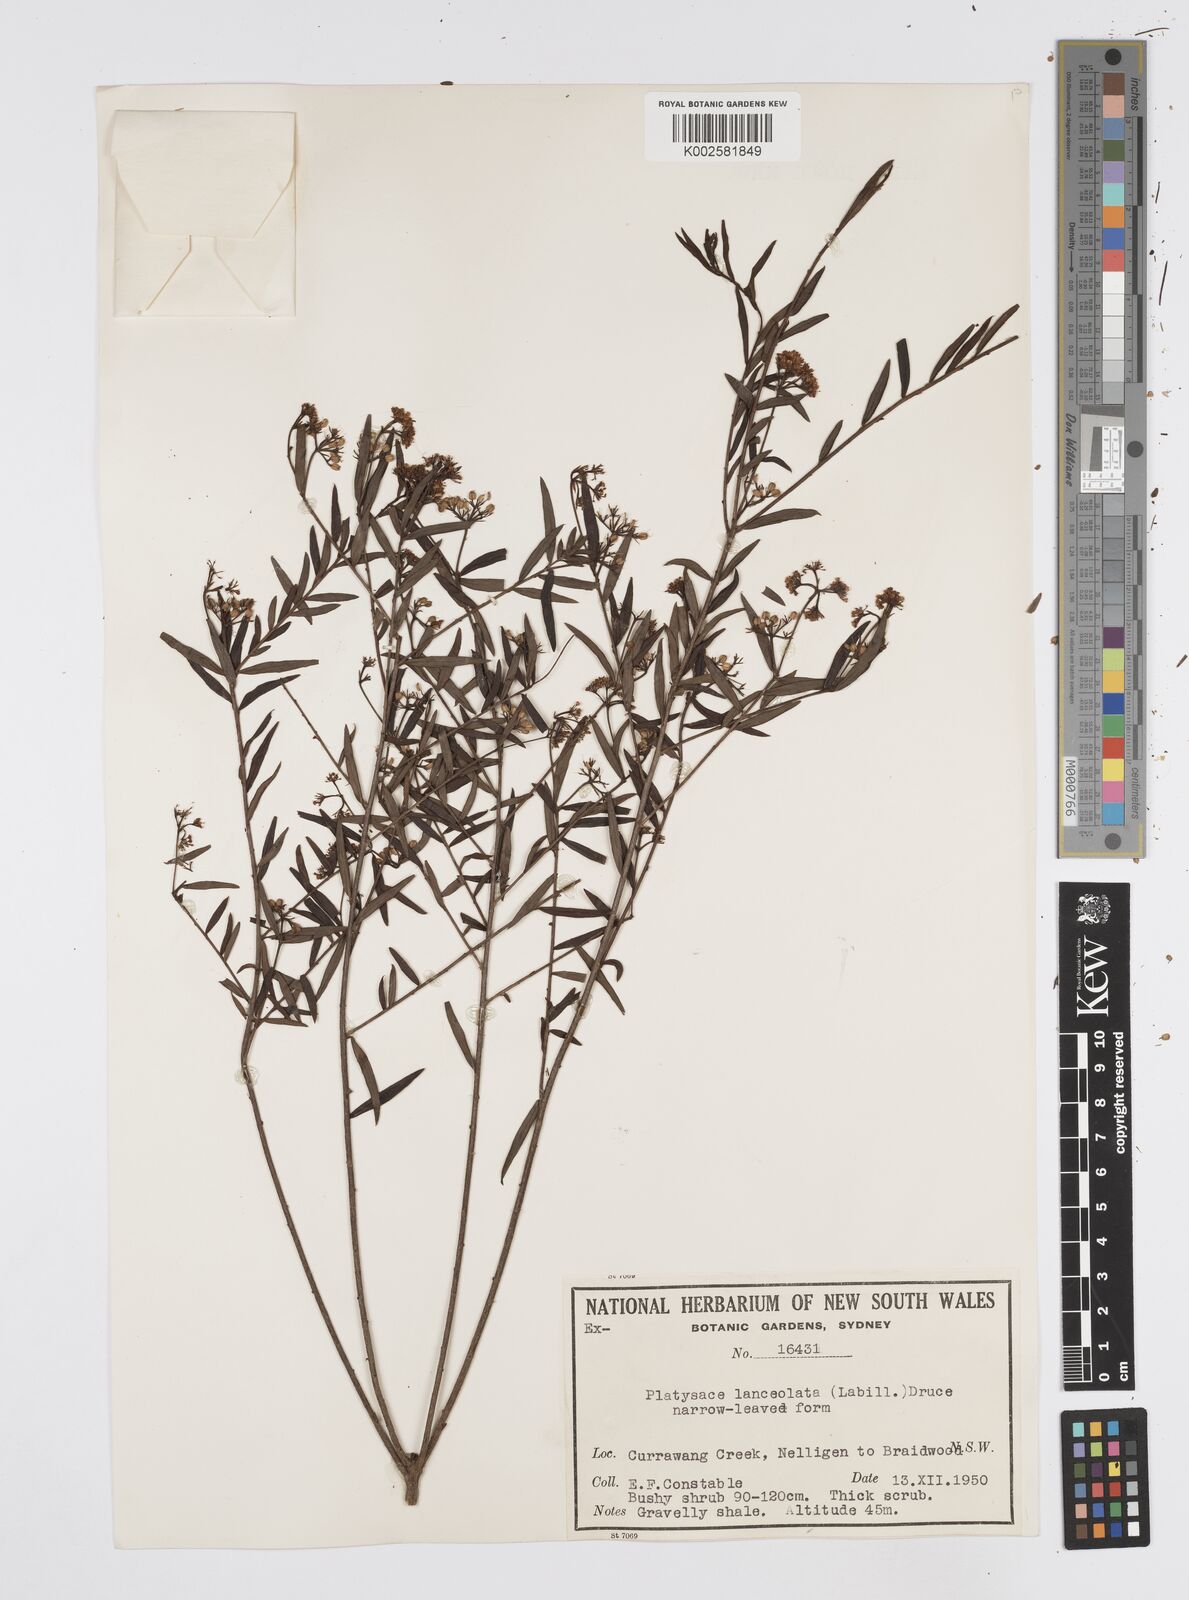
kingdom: Plantae
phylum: Tracheophyta
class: Magnoliopsida
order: Apiales
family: Apiaceae
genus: Platysace
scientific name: Platysace lanceolata
